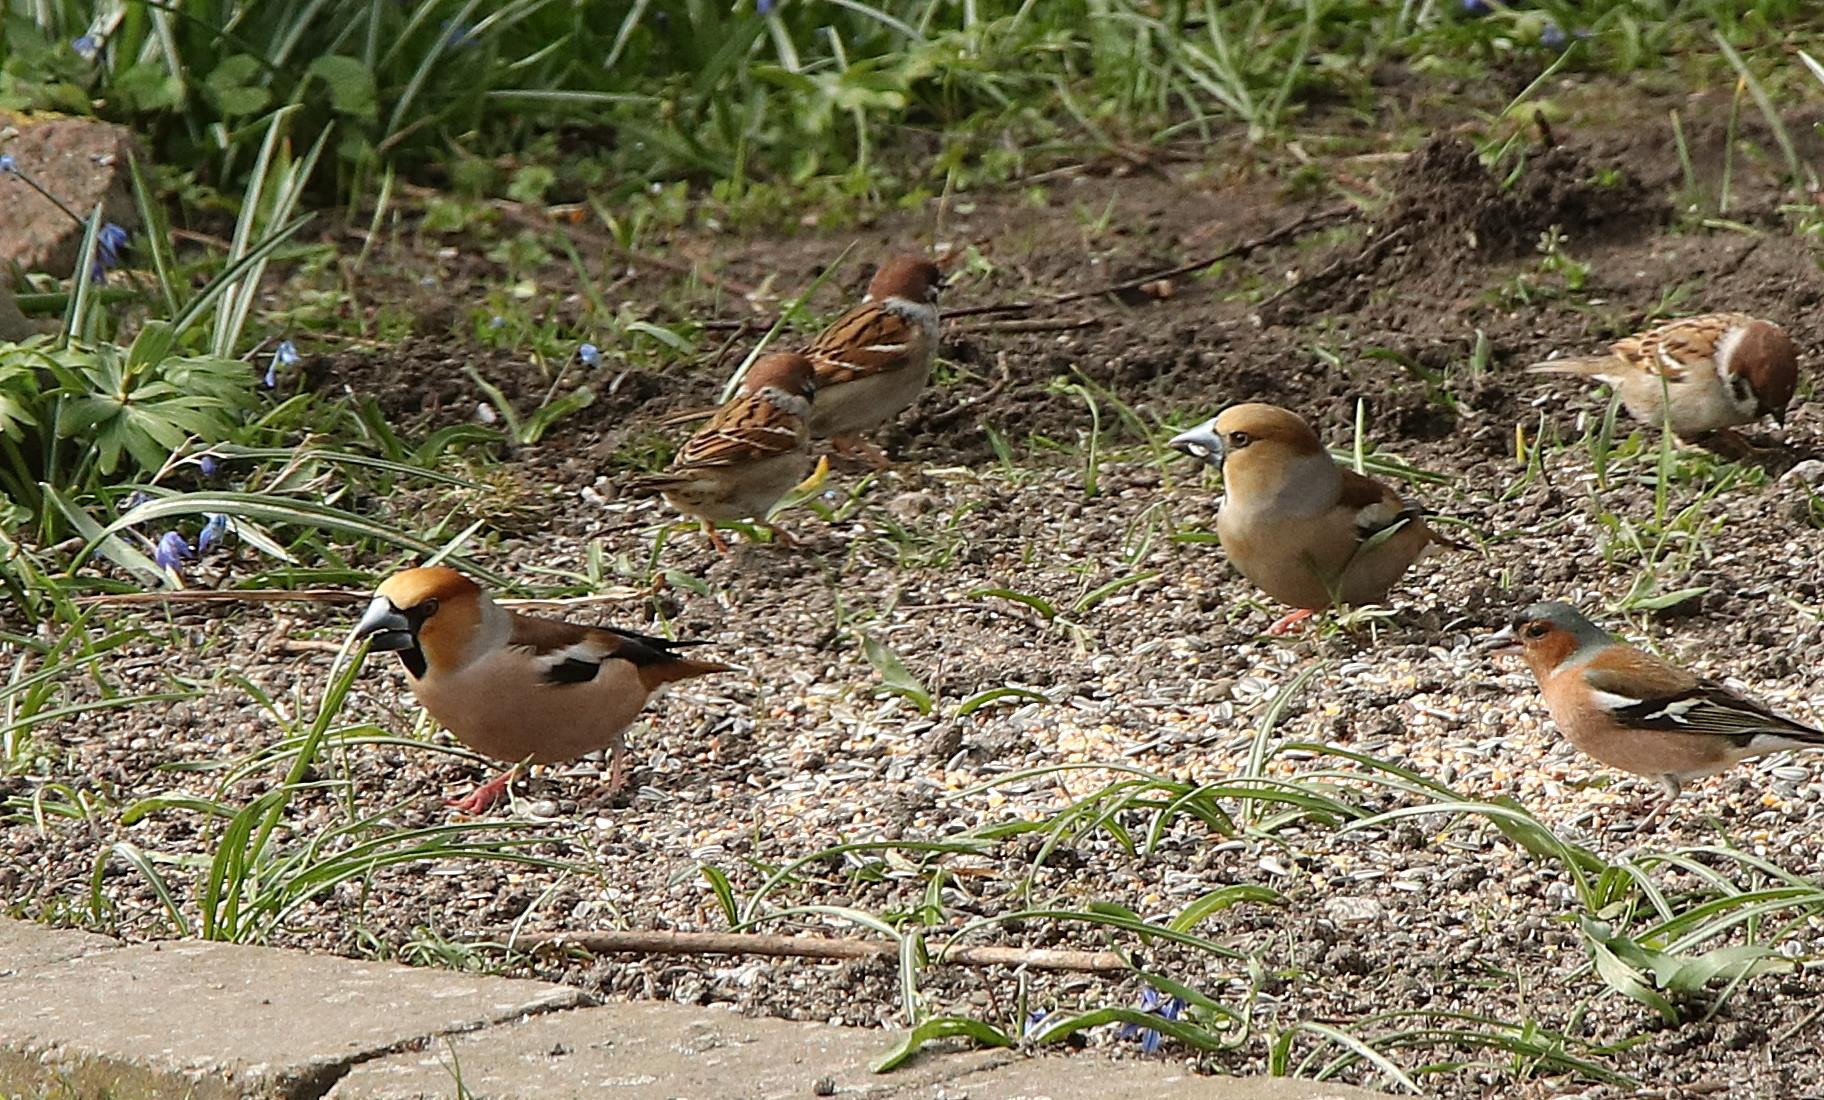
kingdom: Animalia
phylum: Chordata
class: Aves
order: Passeriformes
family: Fringillidae
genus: Coccothraustes
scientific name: Coccothraustes coccothraustes
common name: Kernebider
